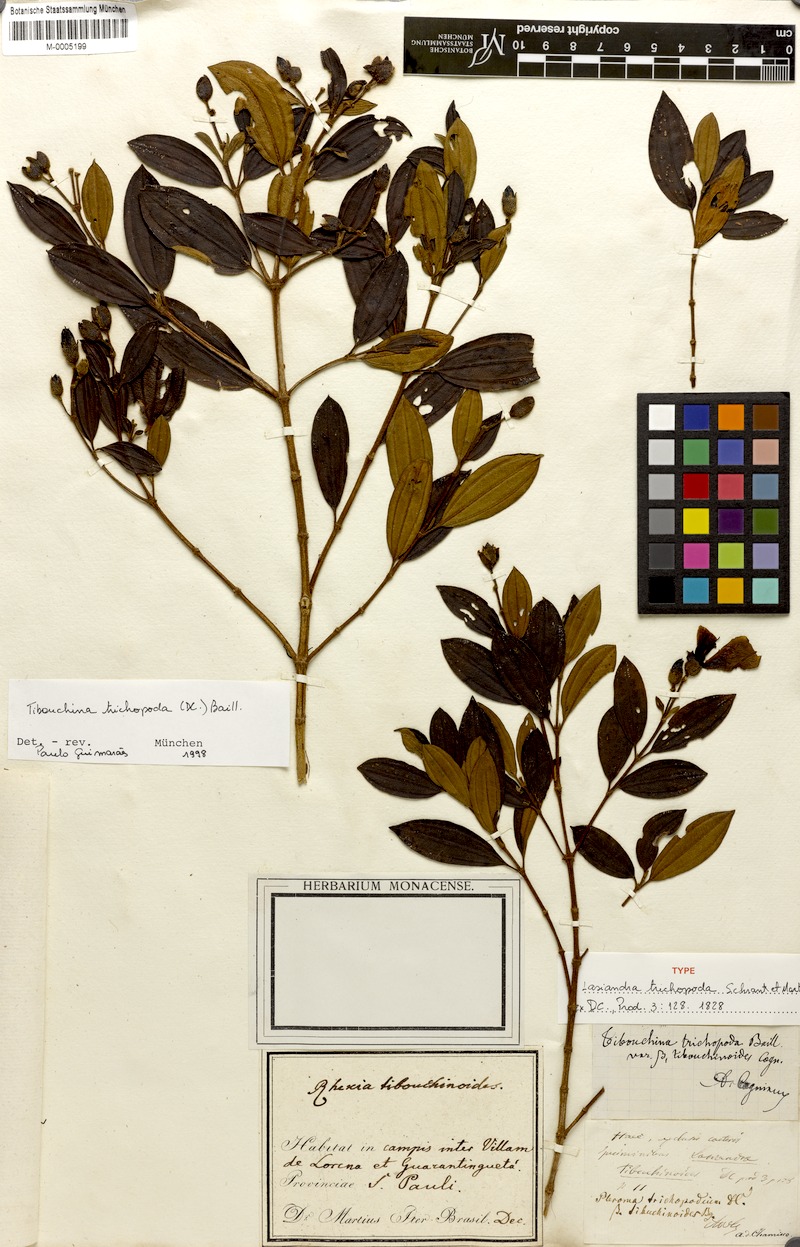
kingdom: Plantae
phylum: Tracheophyta
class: Magnoliopsida
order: Myrtales
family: Melastomataceae
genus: Pleroma
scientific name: Pleroma trichopodum
